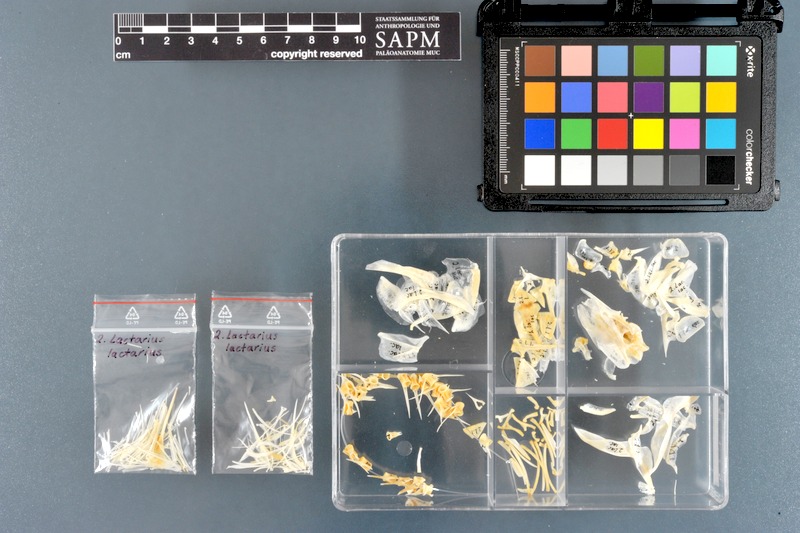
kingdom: Animalia
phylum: Chordata
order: Perciformes
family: Lactariidae
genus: Lactarius
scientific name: Lactarius lactarius
